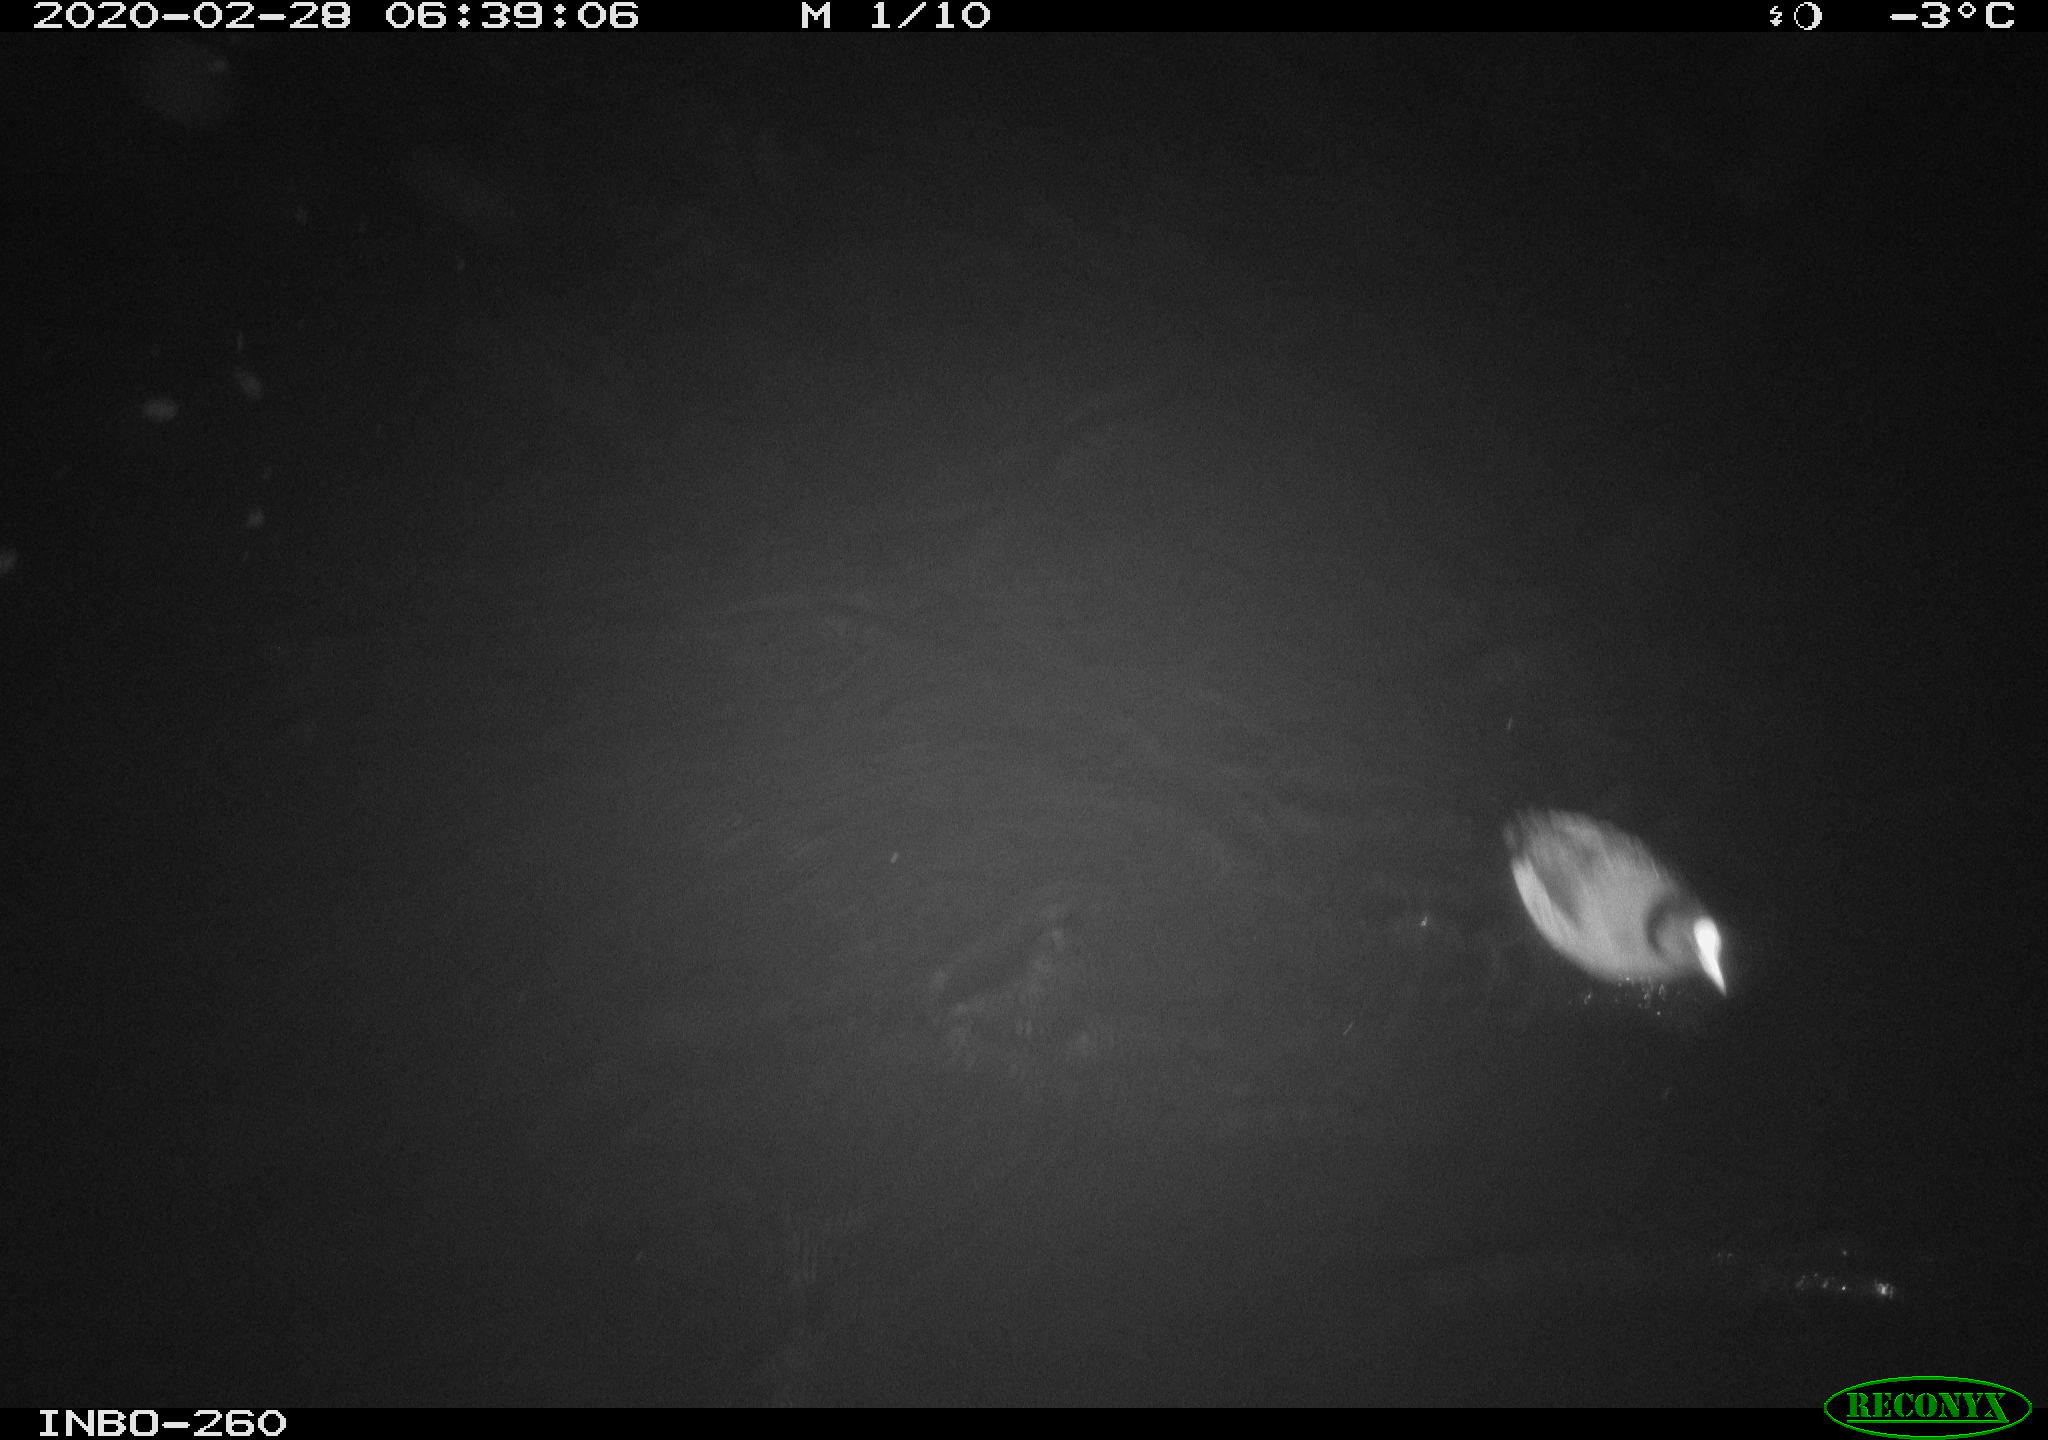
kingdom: Animalia
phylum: Chordata
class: Aves
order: Gruiformes
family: Rallidae
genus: Fulica
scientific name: Fulica atra
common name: Eurasian coot
